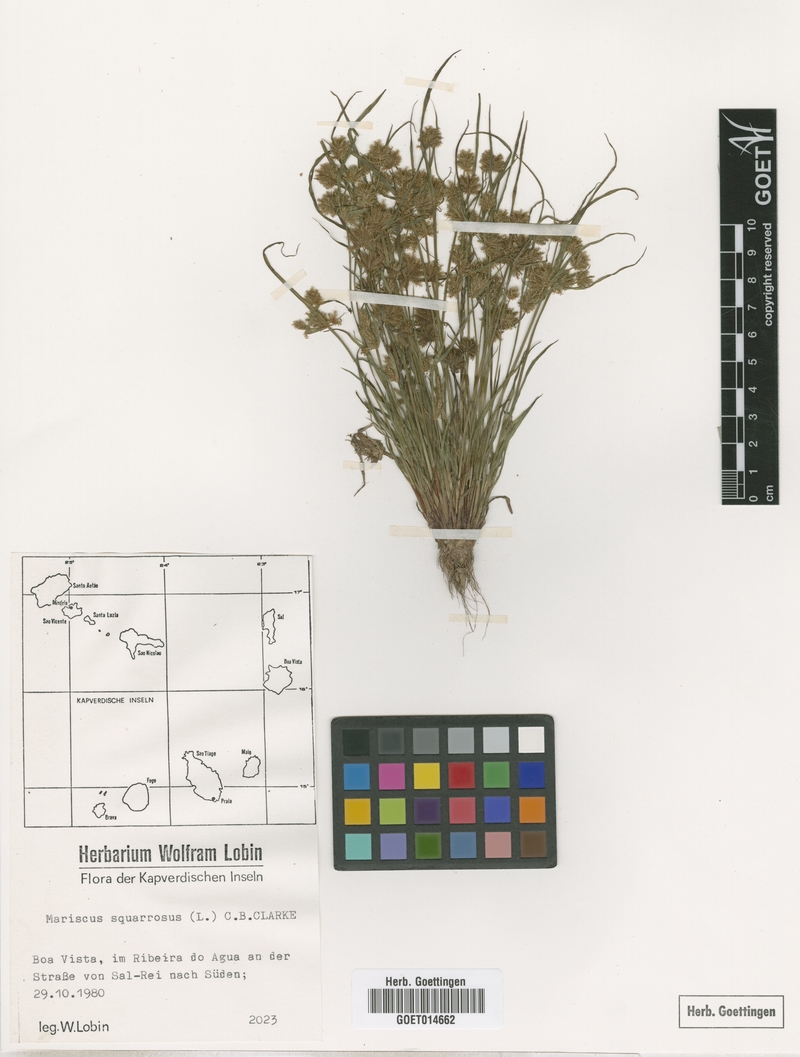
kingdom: Plantae
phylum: Tracheophyta
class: Liliopsida
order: Poales
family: Cyperaceae
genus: Cyperus
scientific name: Cyperus squarrosus
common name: Awned cyperus
